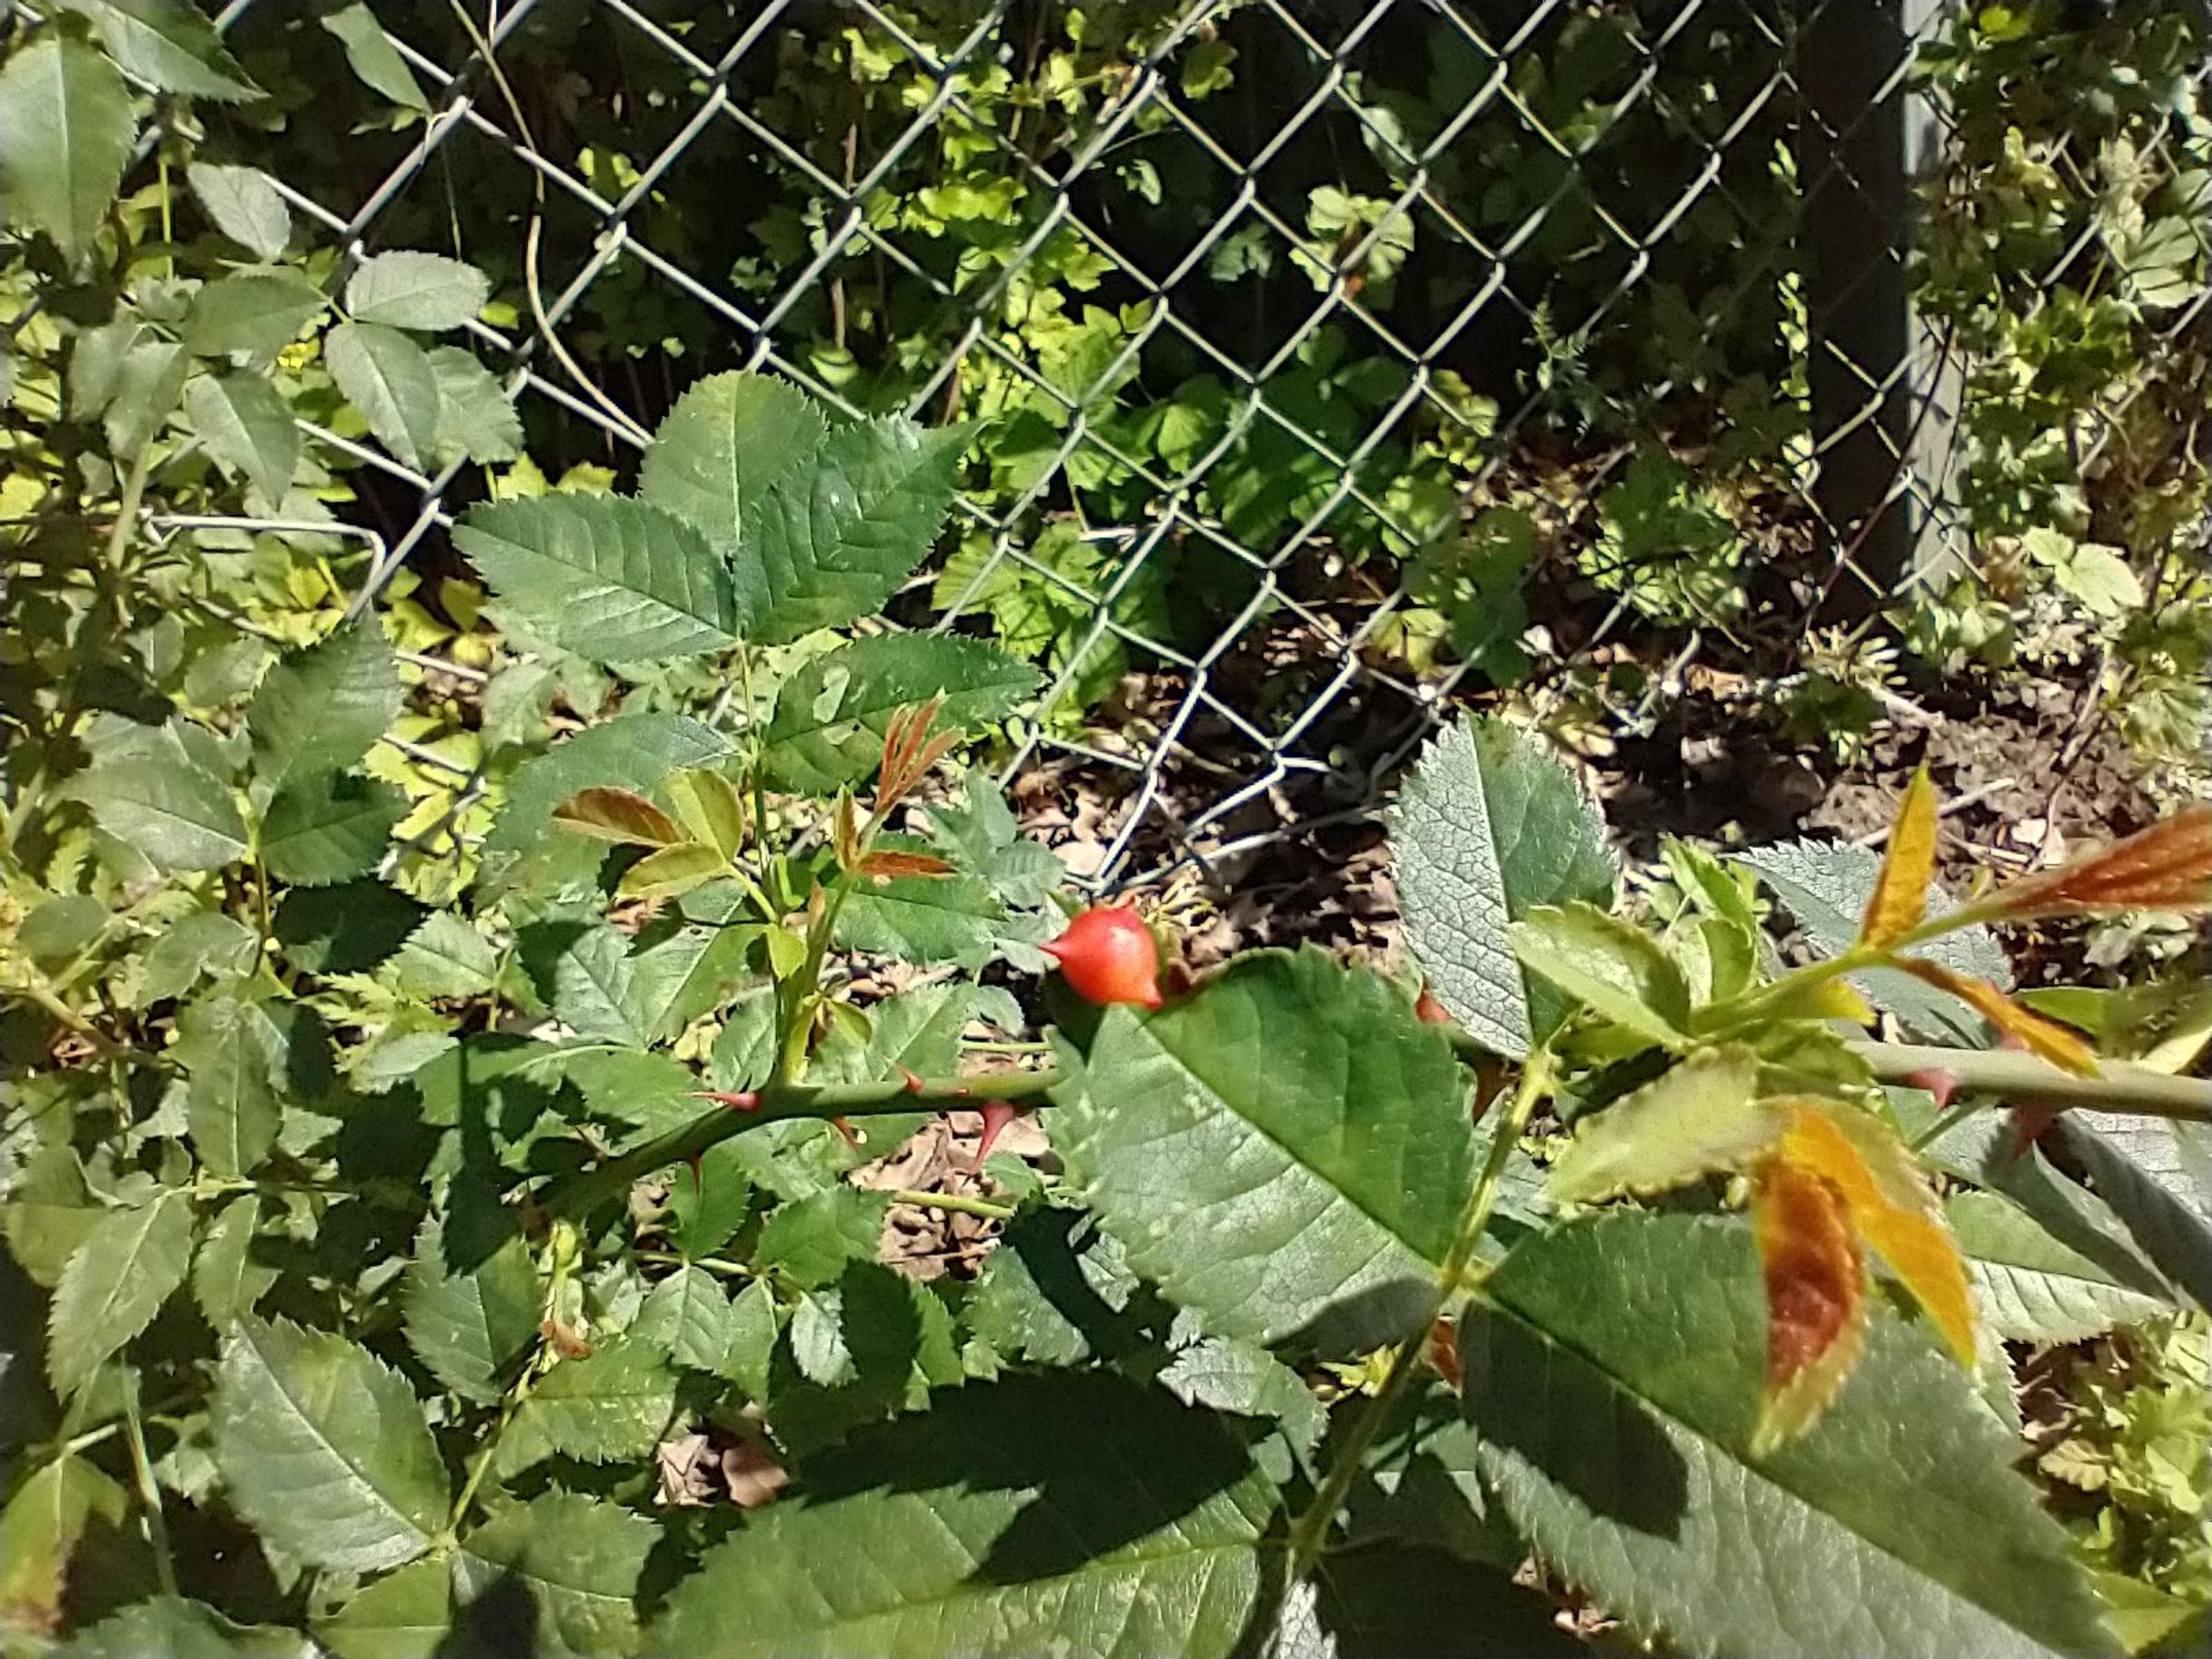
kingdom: Animalia
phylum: Arthropoda
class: Insecta
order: Hymenoptera
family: Cynipidae
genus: Diplolepis
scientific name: Diplolepis nervosa
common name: Morgenstjernegalhveps
